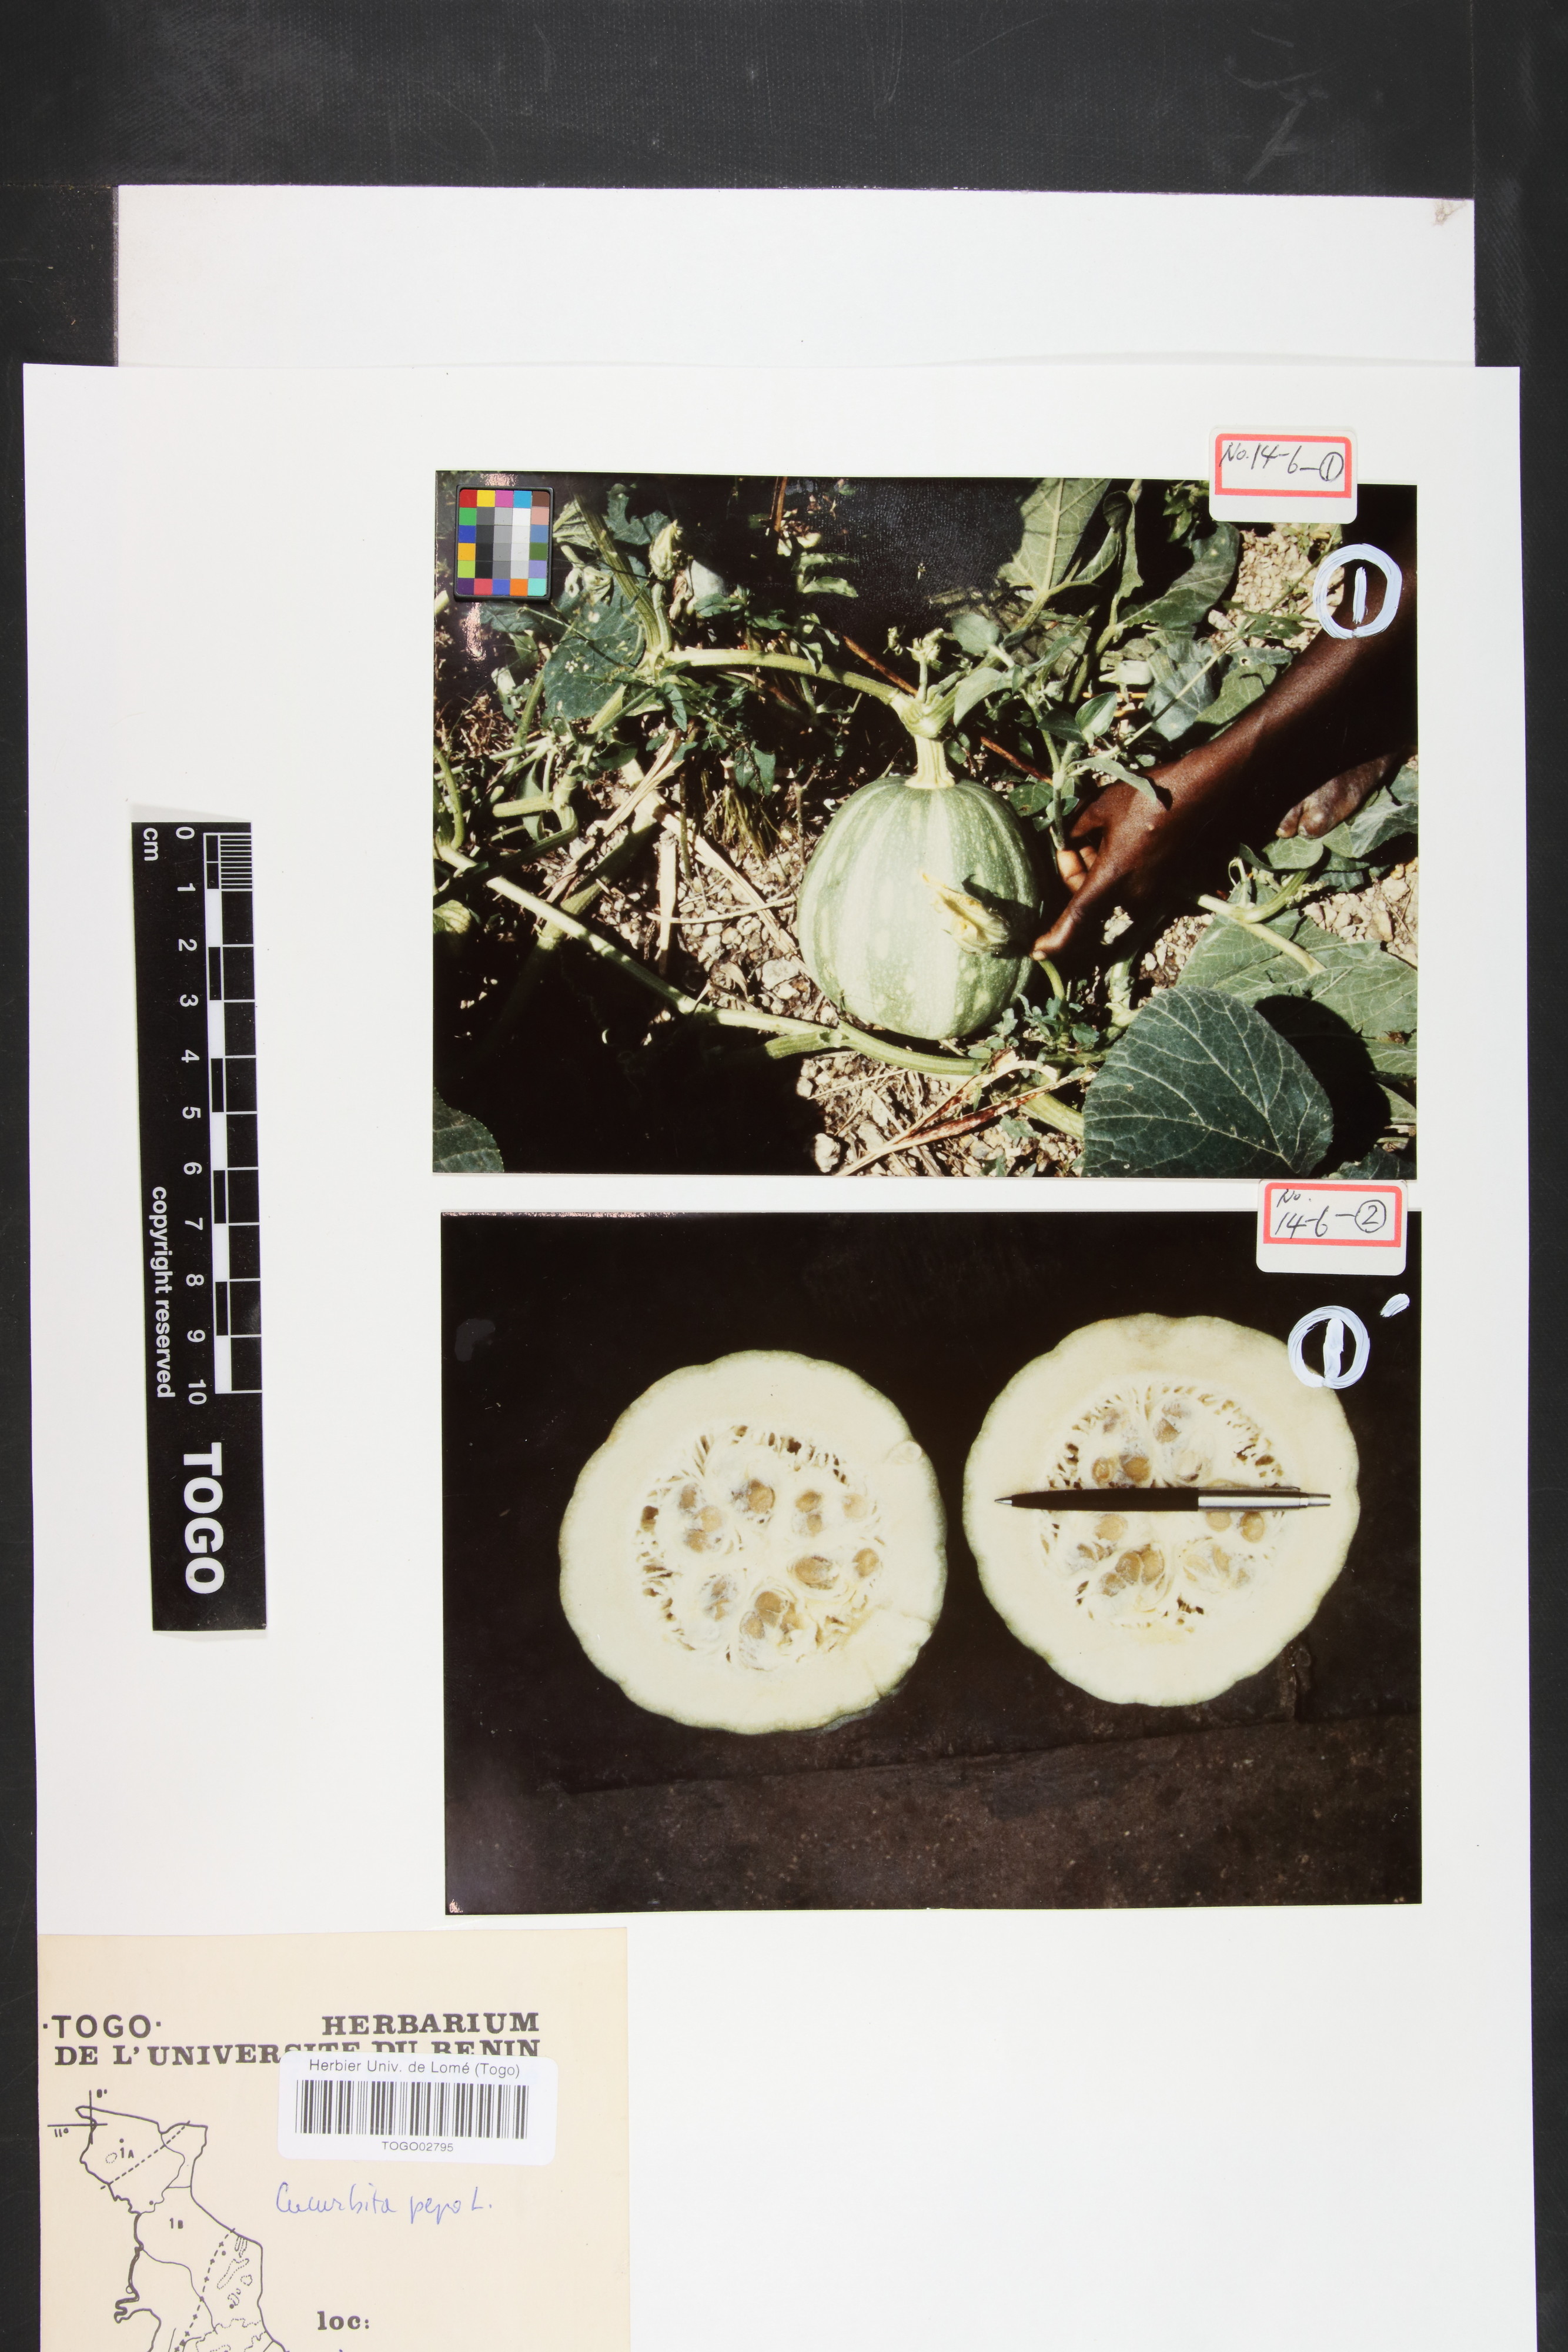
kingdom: Plantae
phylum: Tracheophyta
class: Magnoliopsida
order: Cucurbitales
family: Cucurbitaceae
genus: Cucurbita
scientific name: Cucurbita pepo
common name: Marrow
